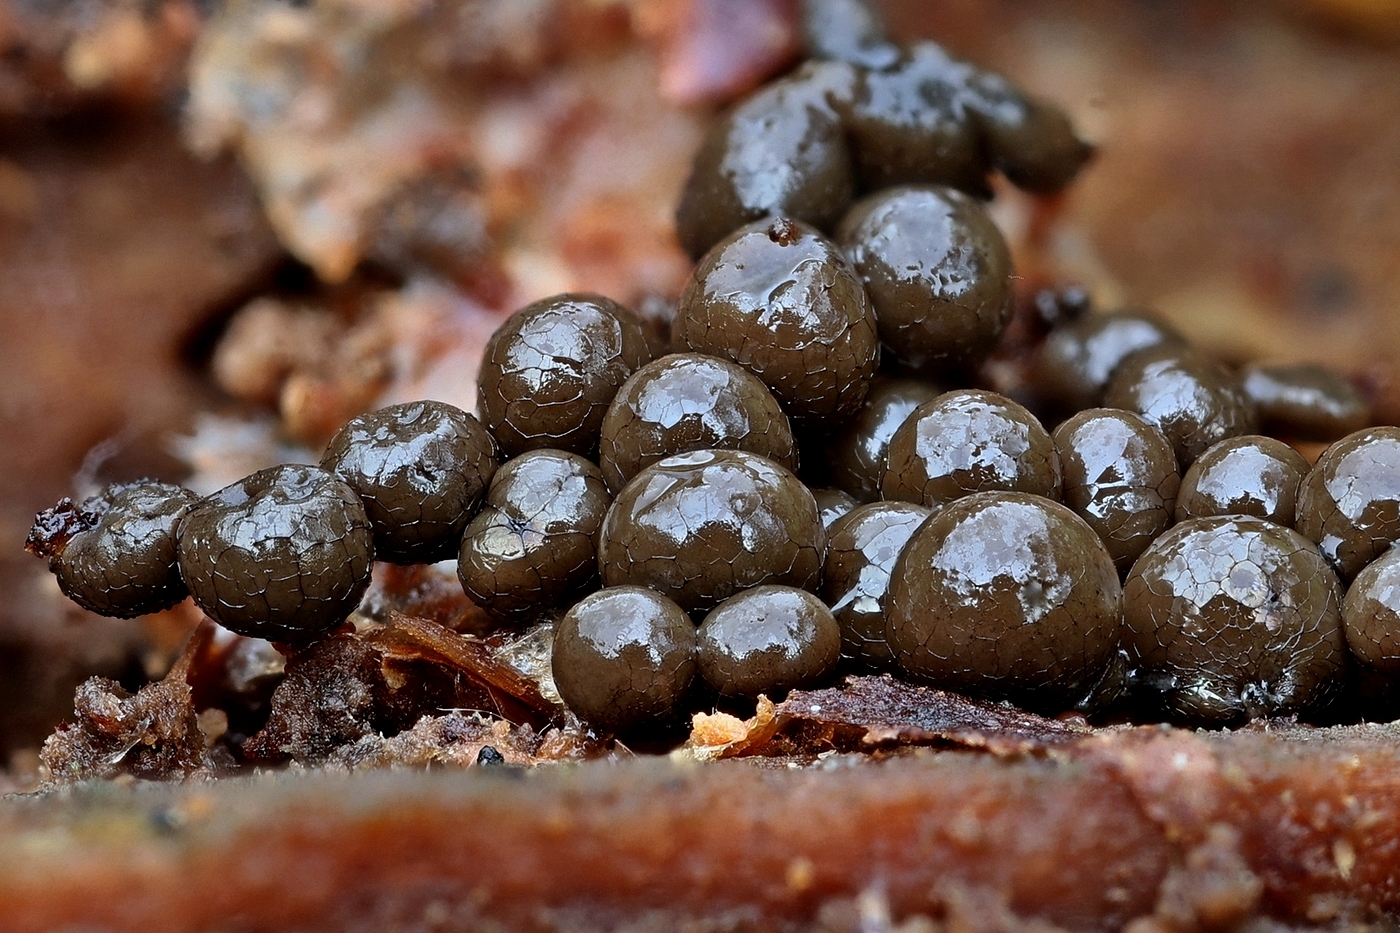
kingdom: Protozoa
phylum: Mycetozoa
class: Myxomycetes
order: Cribrariales
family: Cribrariaceae
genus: Cribraria
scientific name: Cribraria
